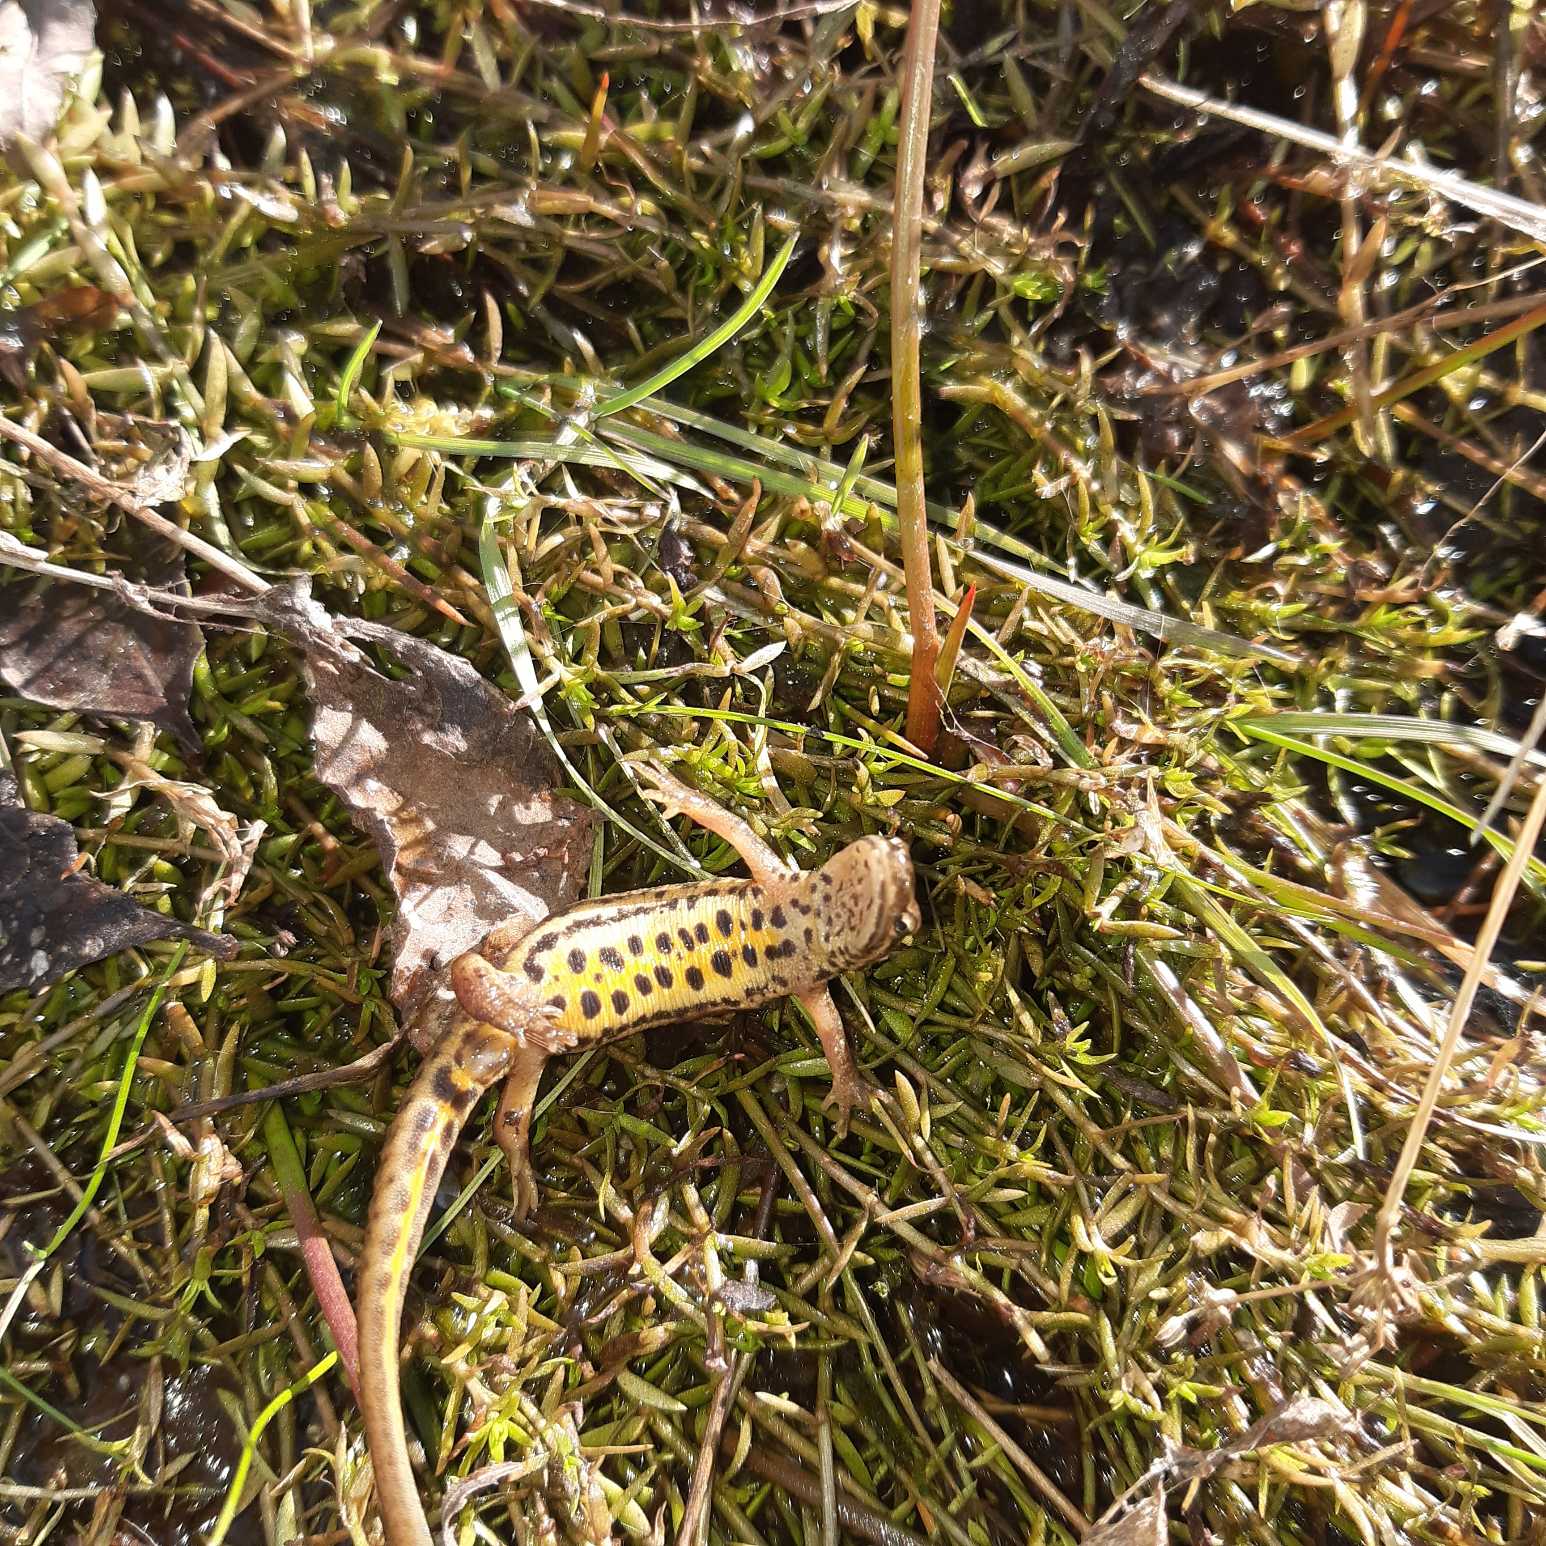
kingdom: Animalia
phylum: Chordata
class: Amphibia
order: Caudata
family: Salamandridae
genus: Lissotriton
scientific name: Lissotriton vulgaris
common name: Lille vandsalamander
